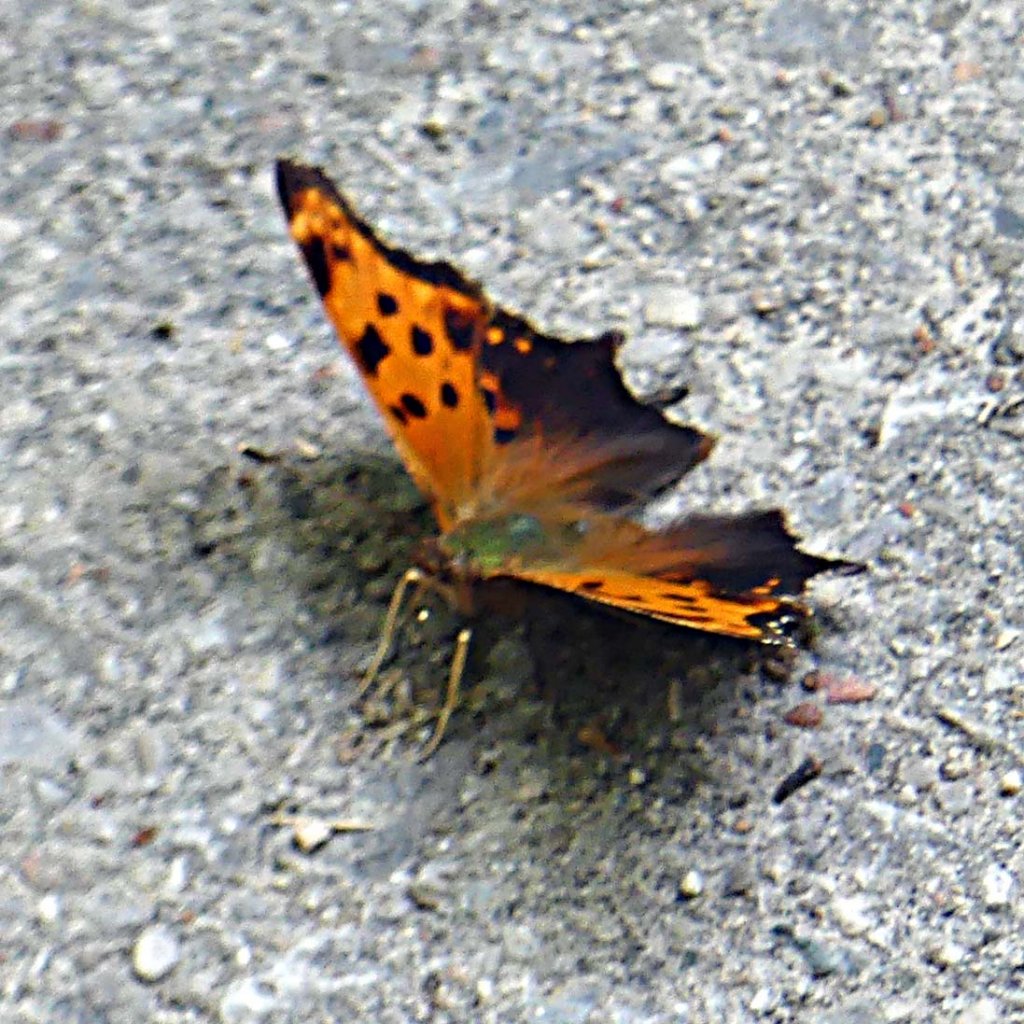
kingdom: Animalia
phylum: Arthropoda
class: Insecta
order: Lepidoptera
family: Nymphalidae
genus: Polygonia
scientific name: Polygonia comma
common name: Eastern Comma
